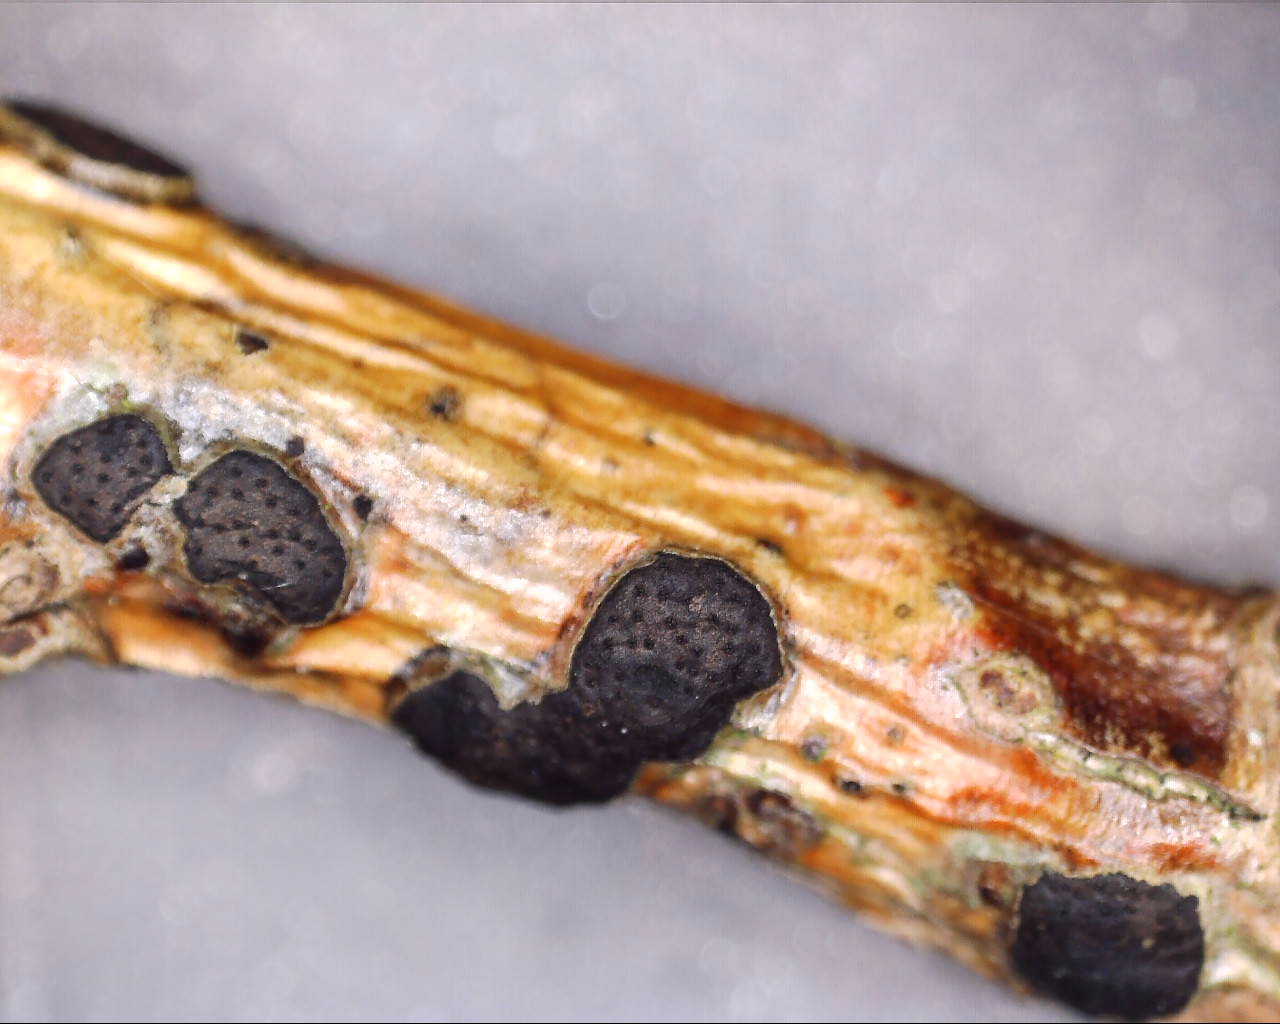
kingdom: Fungi
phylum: Ascomycota
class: Sordariomycetes
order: Xylariales
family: Diatrypaceae
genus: Diatrype
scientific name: Diatrype bullata
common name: pile-kulskorpe
